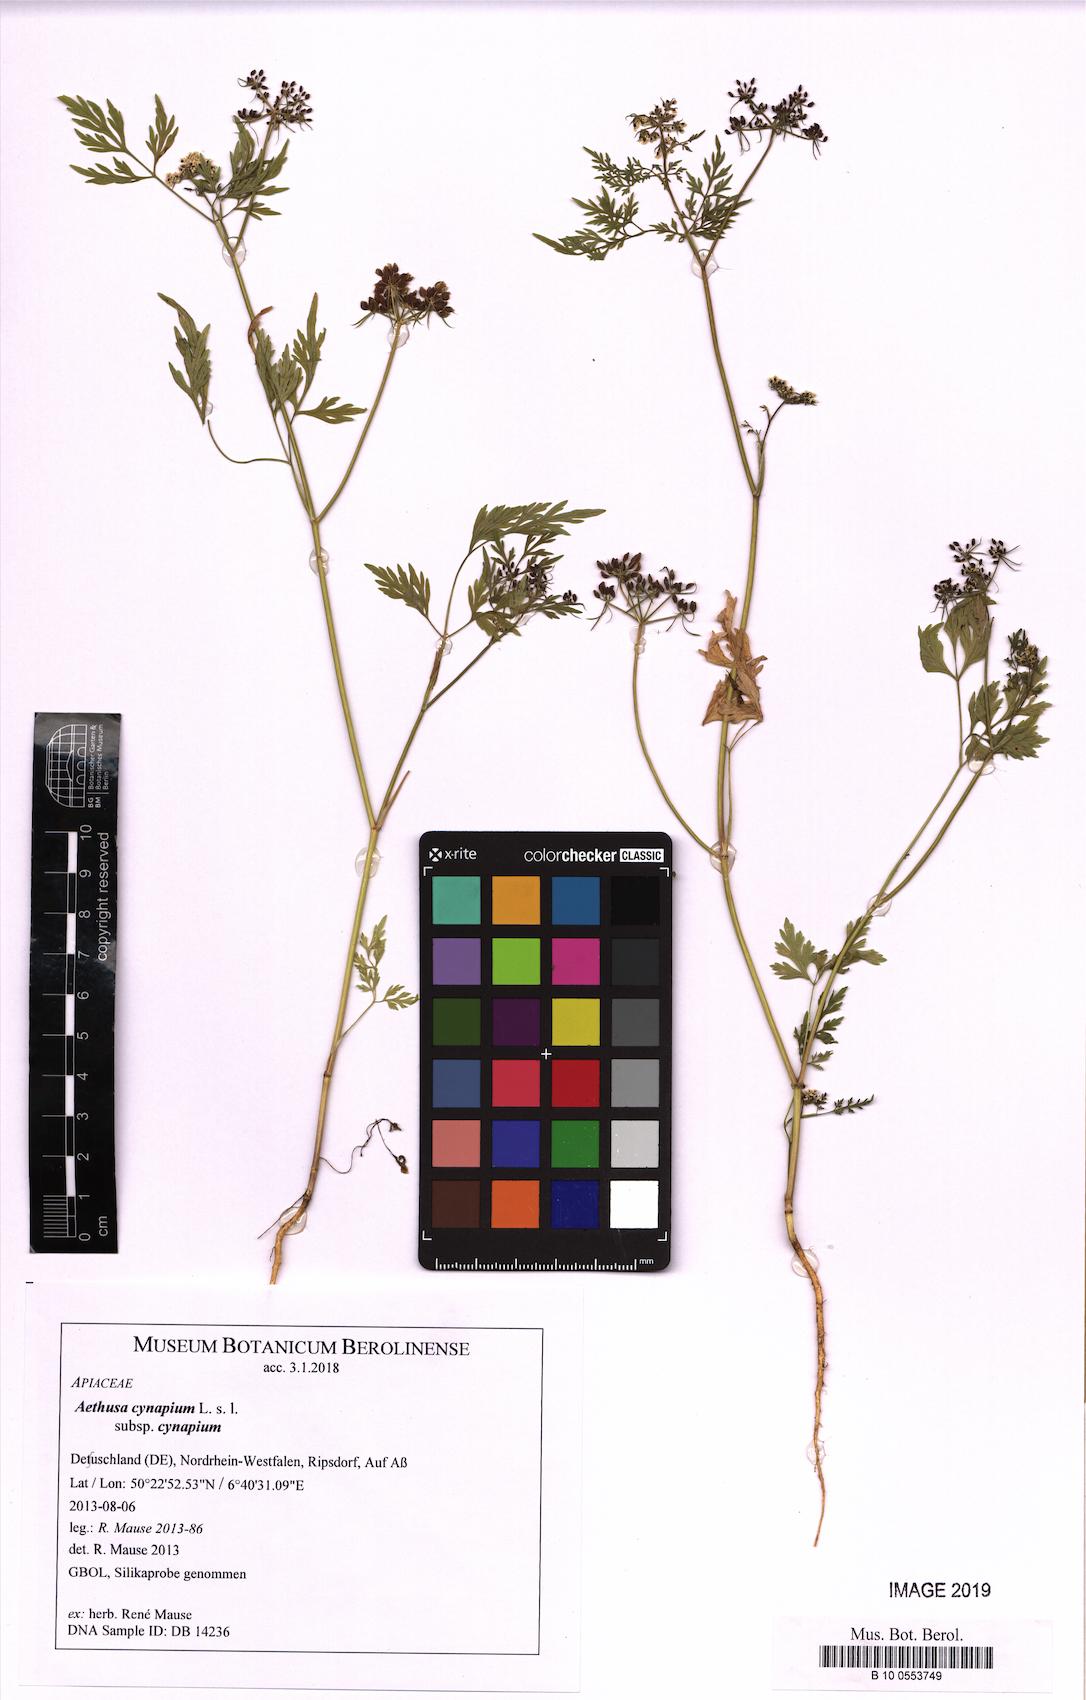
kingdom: Plantae
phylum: Tracheophyta
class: Magnoliopsida
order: Apiales
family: Apiaceae
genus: Aethusa
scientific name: Aethusa cynapium
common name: Fool's parsley
